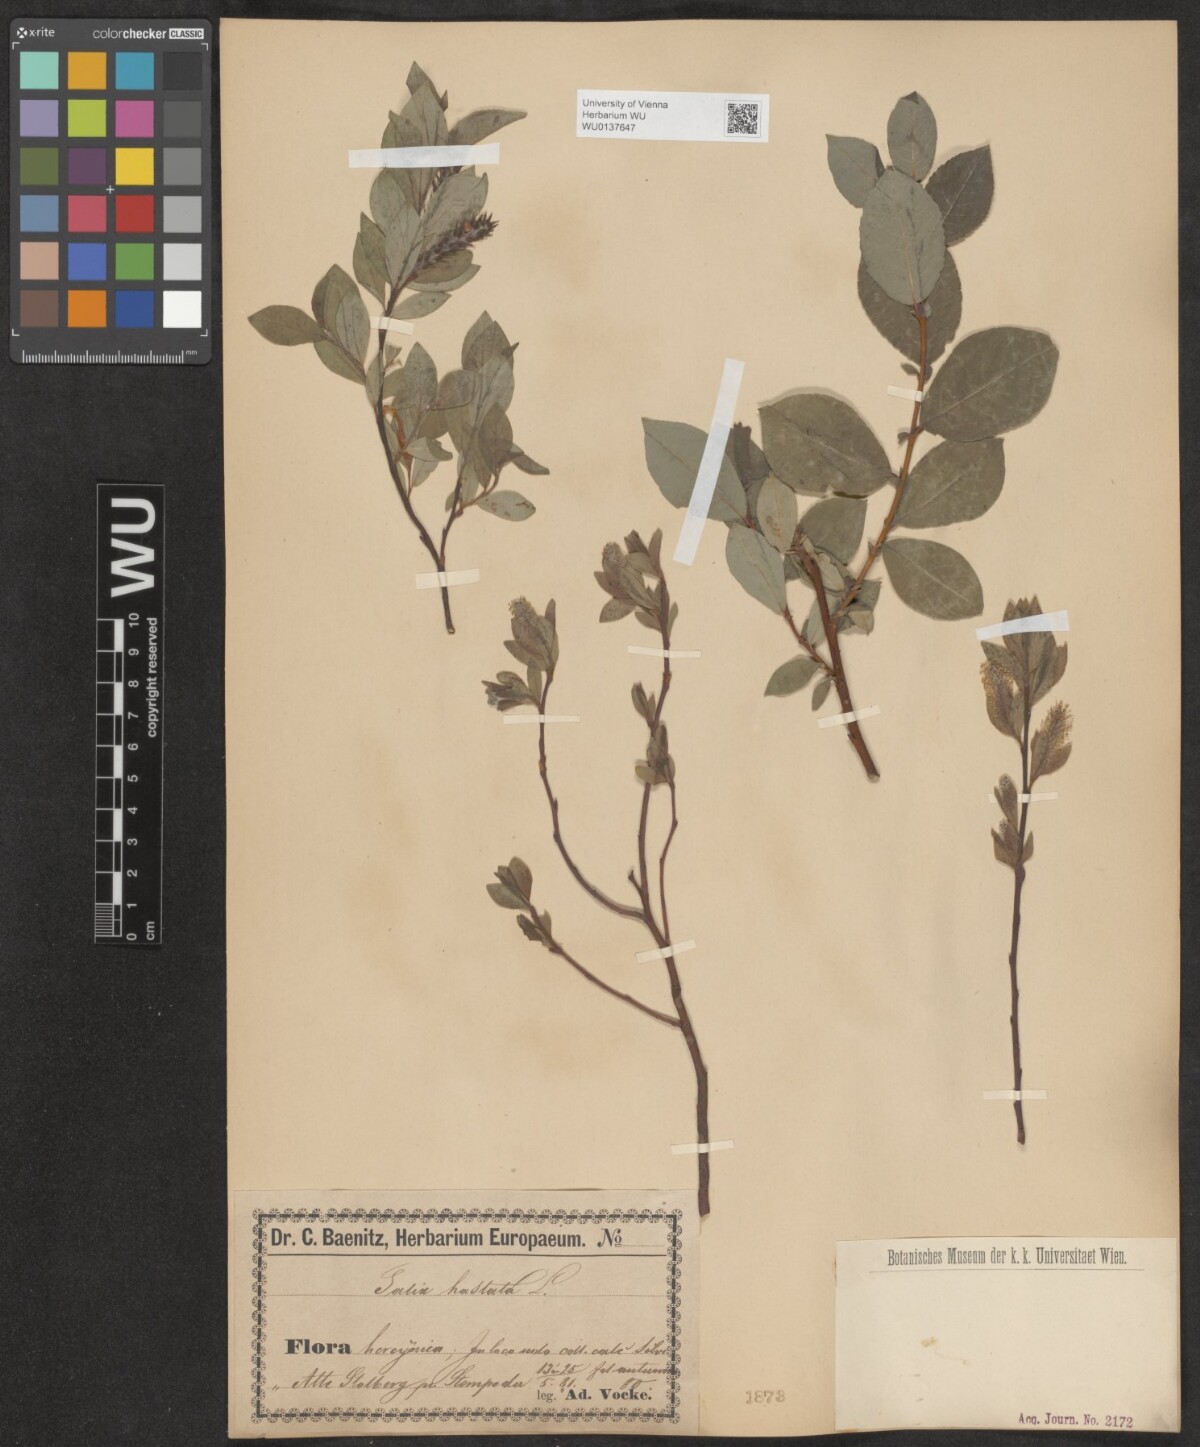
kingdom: Plantae
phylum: Tracheophyta
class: Magnoliopsida
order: Malpighiales
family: Salicaceae
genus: Salix
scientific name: Salix hastata
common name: Halberd willow
